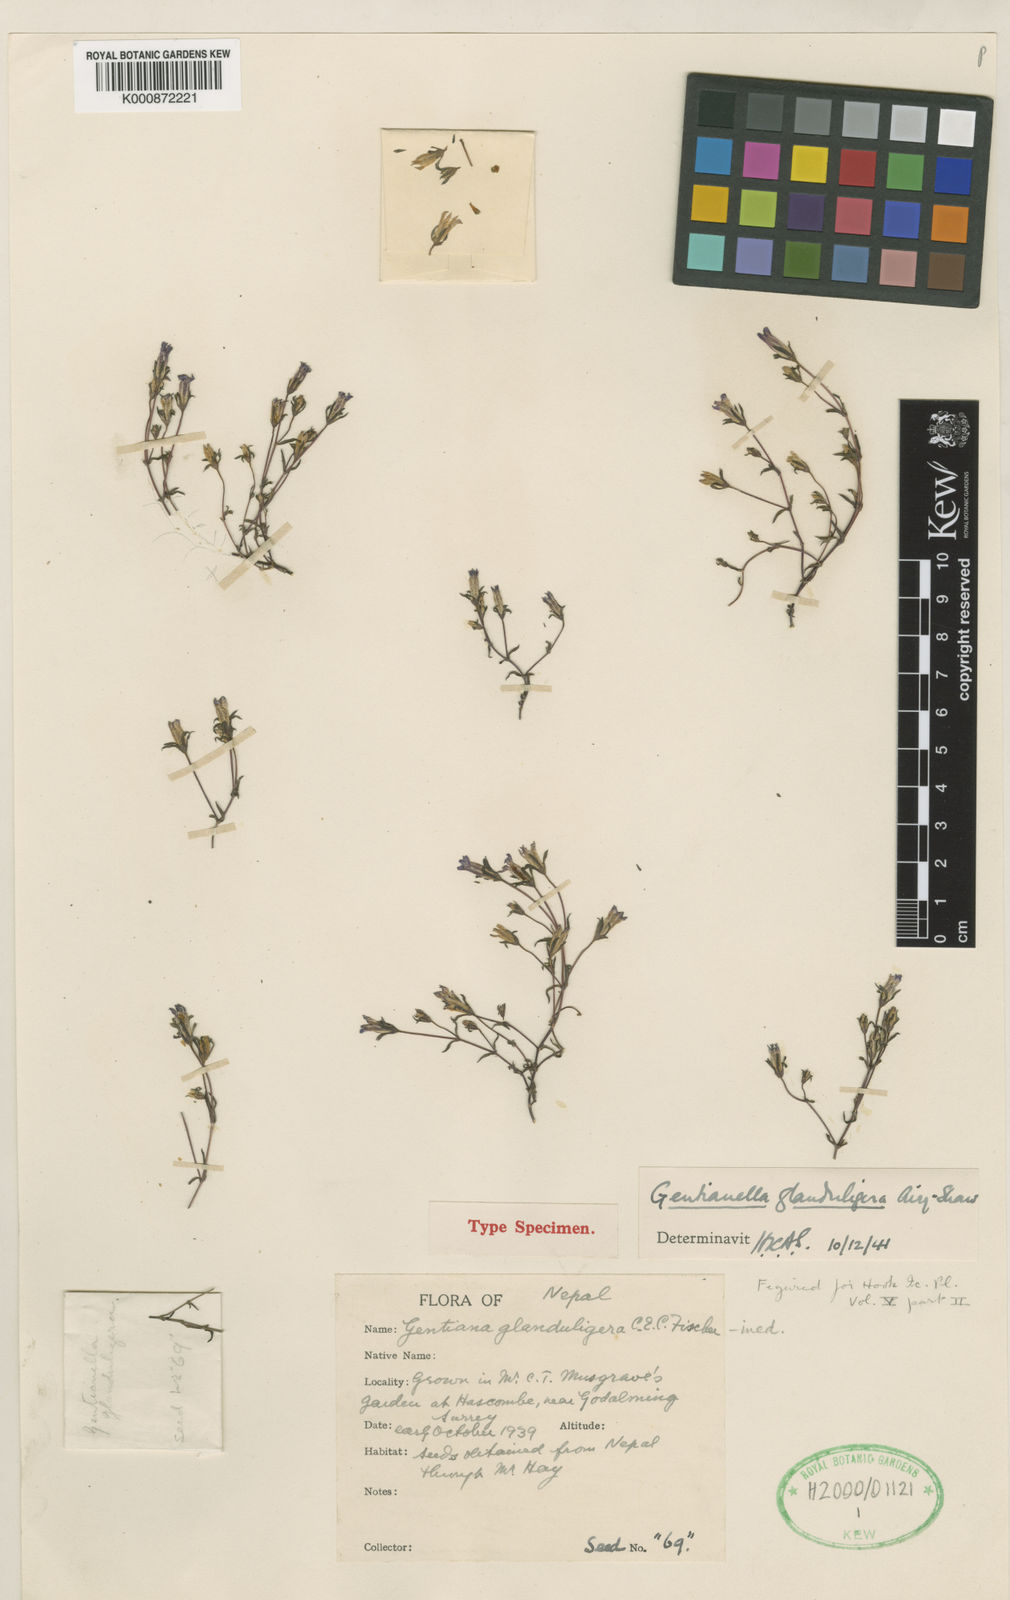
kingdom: Plantae
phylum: Tracheophyta
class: Magnoliopsida
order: Gentianales
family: Gentianaceae
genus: Gentiana
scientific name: Gentiana
